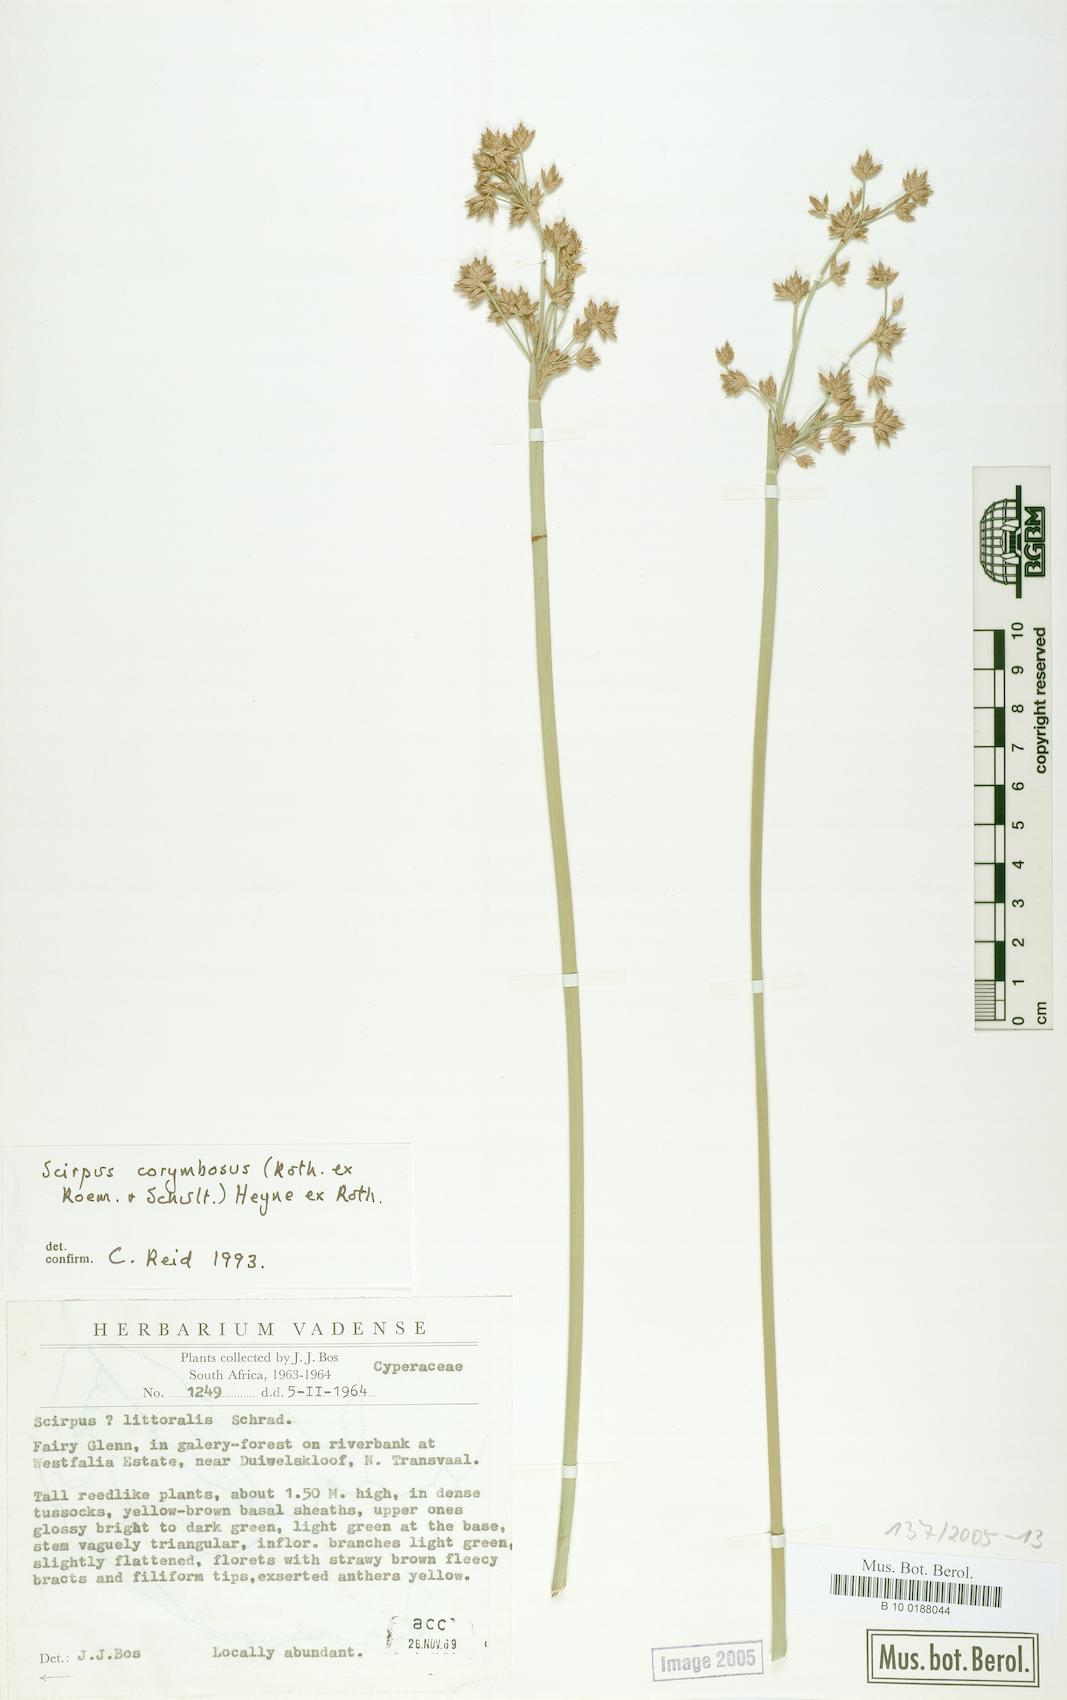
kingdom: Plantae
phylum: Tracheophyta
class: Liliopsida
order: Poales
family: Cyperaceae
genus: Scirpus
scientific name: Scirpus corymbosus
